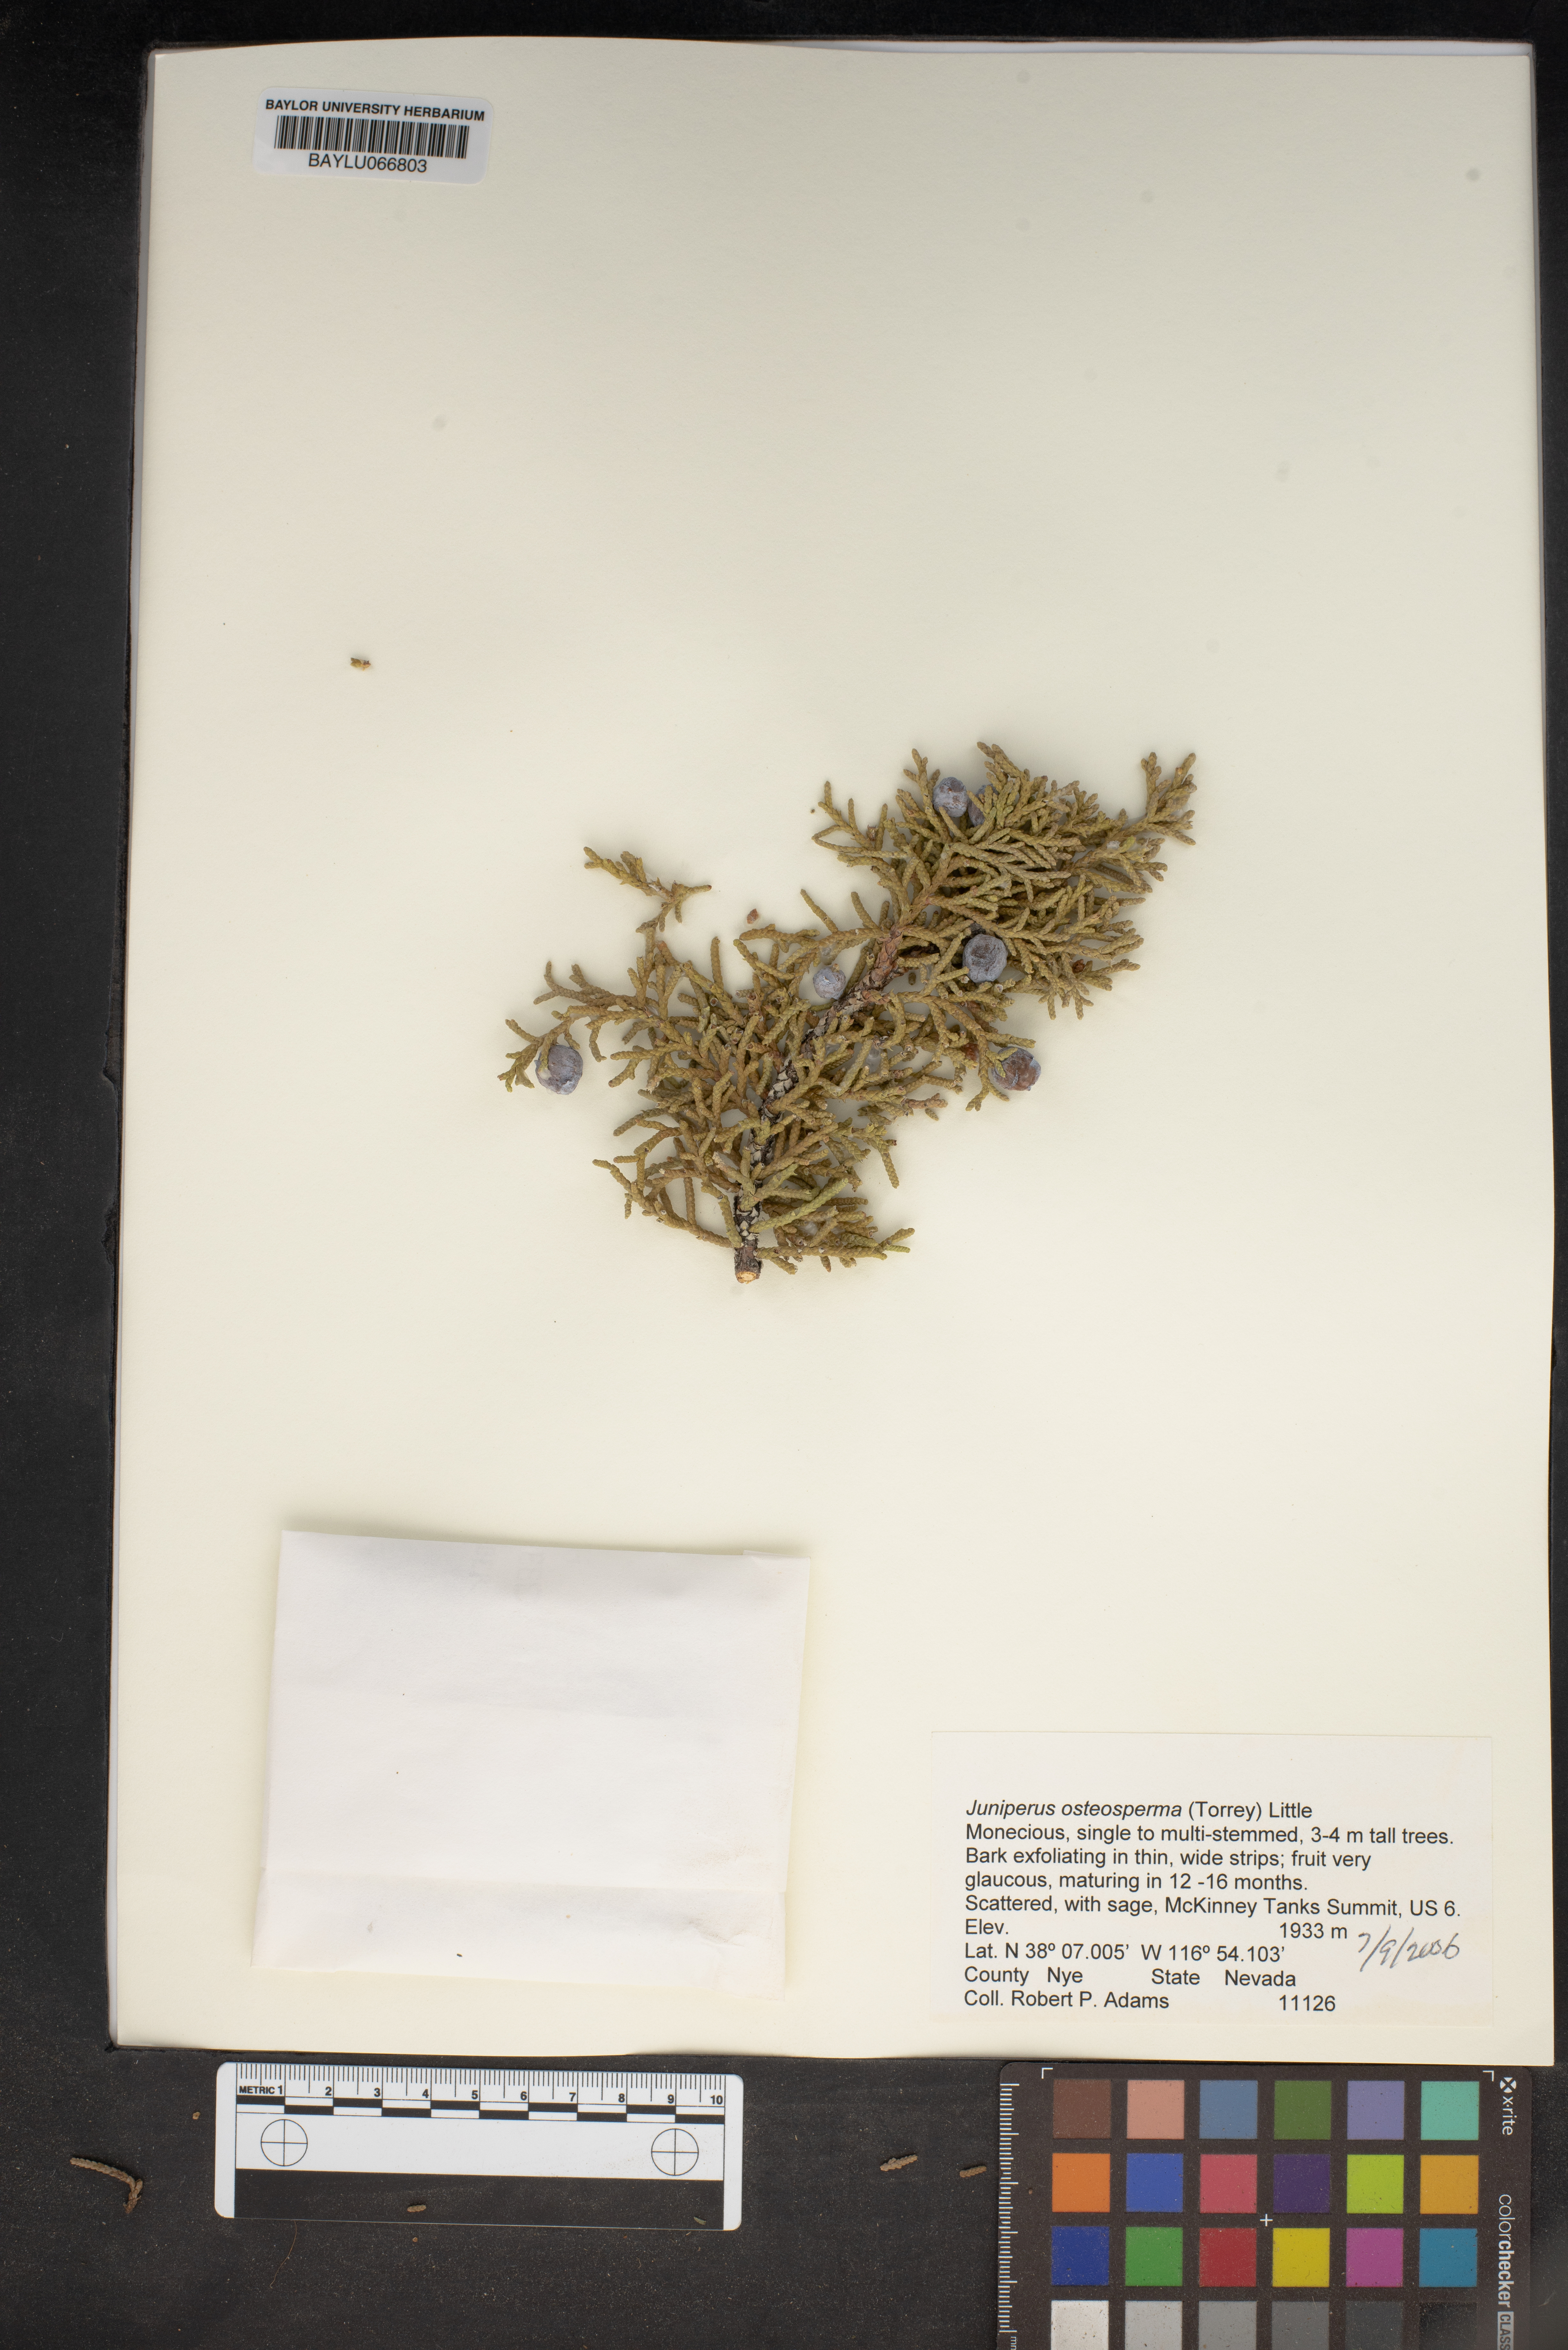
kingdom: Plantae
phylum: Tracheophyta
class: Pinopsida
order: Pinales
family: Cupressaceae
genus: Juniperus
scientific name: Juniperus osteosperma
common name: Utah juniper
